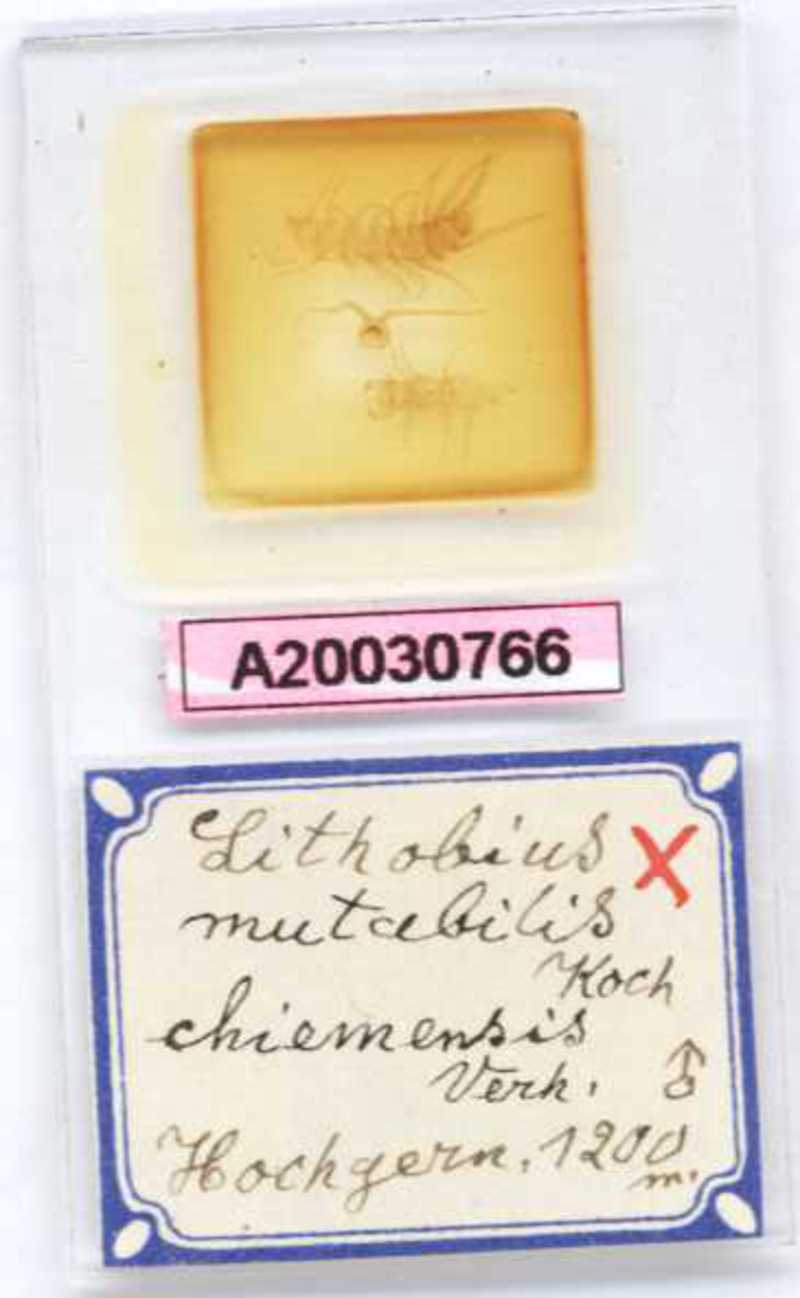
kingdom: Animalia
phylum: Arthropoda
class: Chilopoda
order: Lithobiomorpha
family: Lithobiidae
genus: Lithobius
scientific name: Lithobius mutabilis
